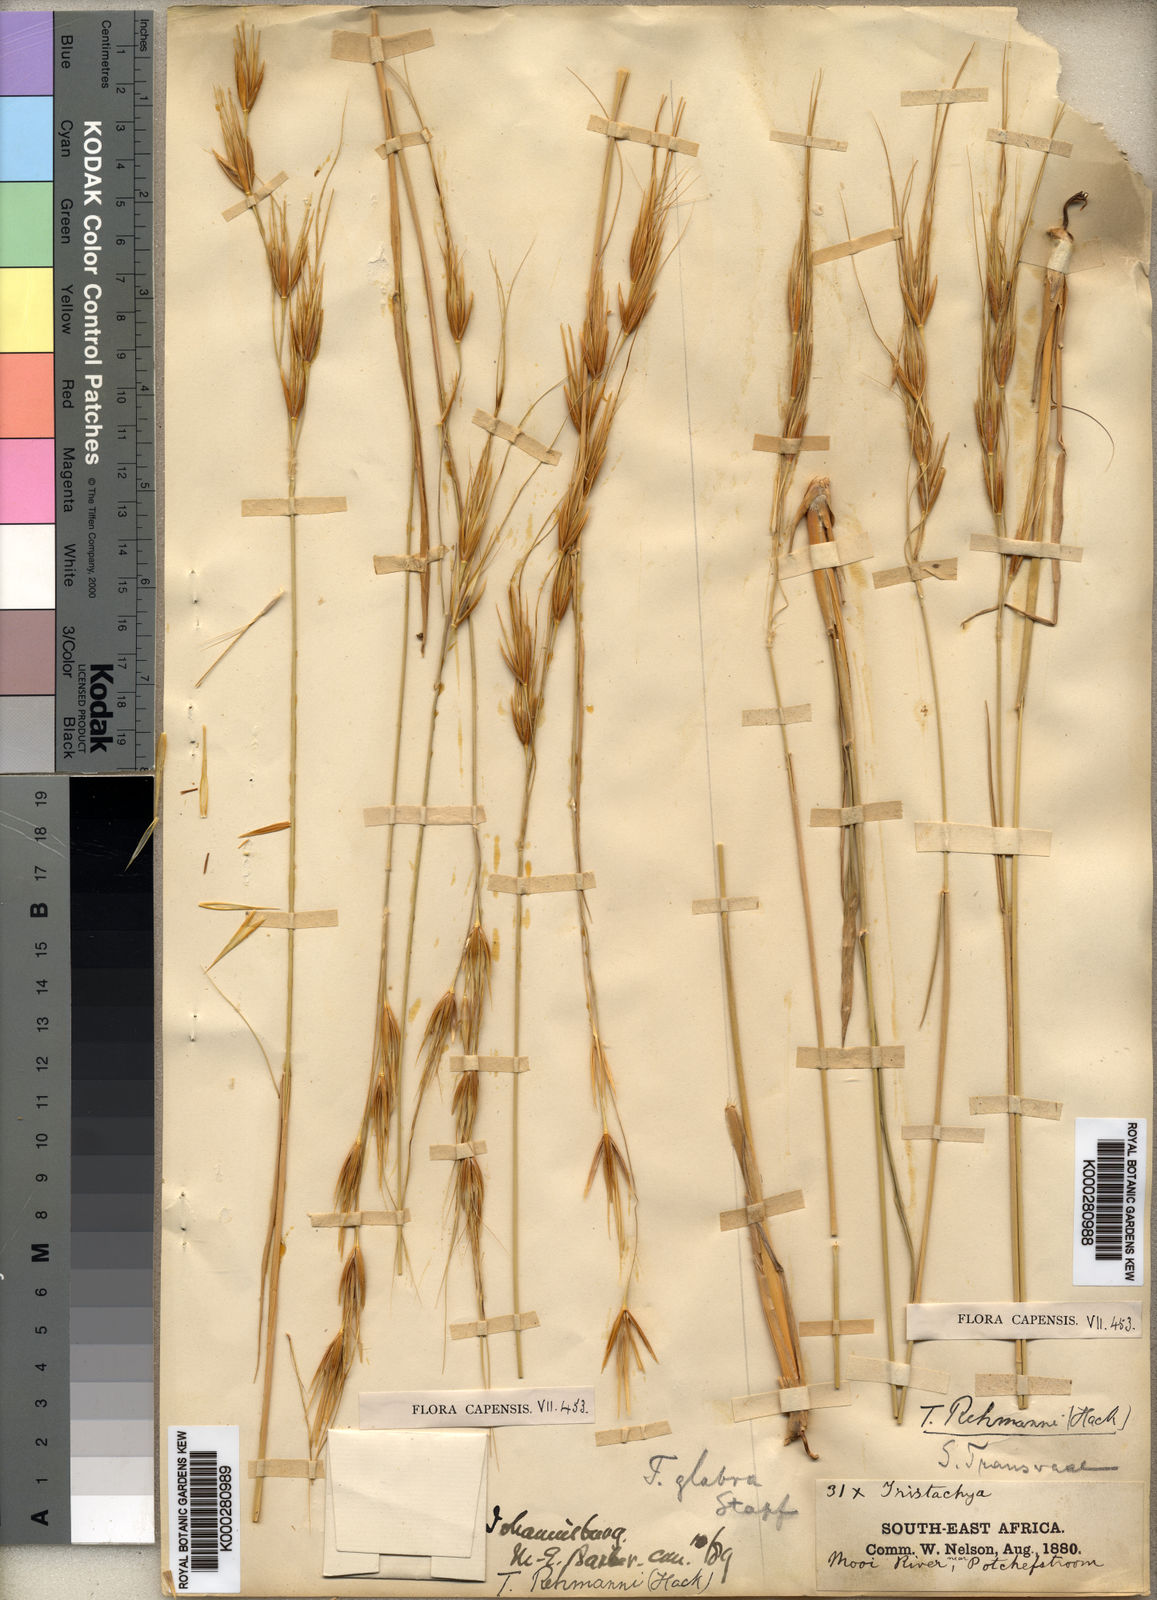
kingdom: Plantae
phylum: Tracheophyta
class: Liliopsida
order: Poales
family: Poaceae
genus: Tristachya
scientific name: Tristachya
